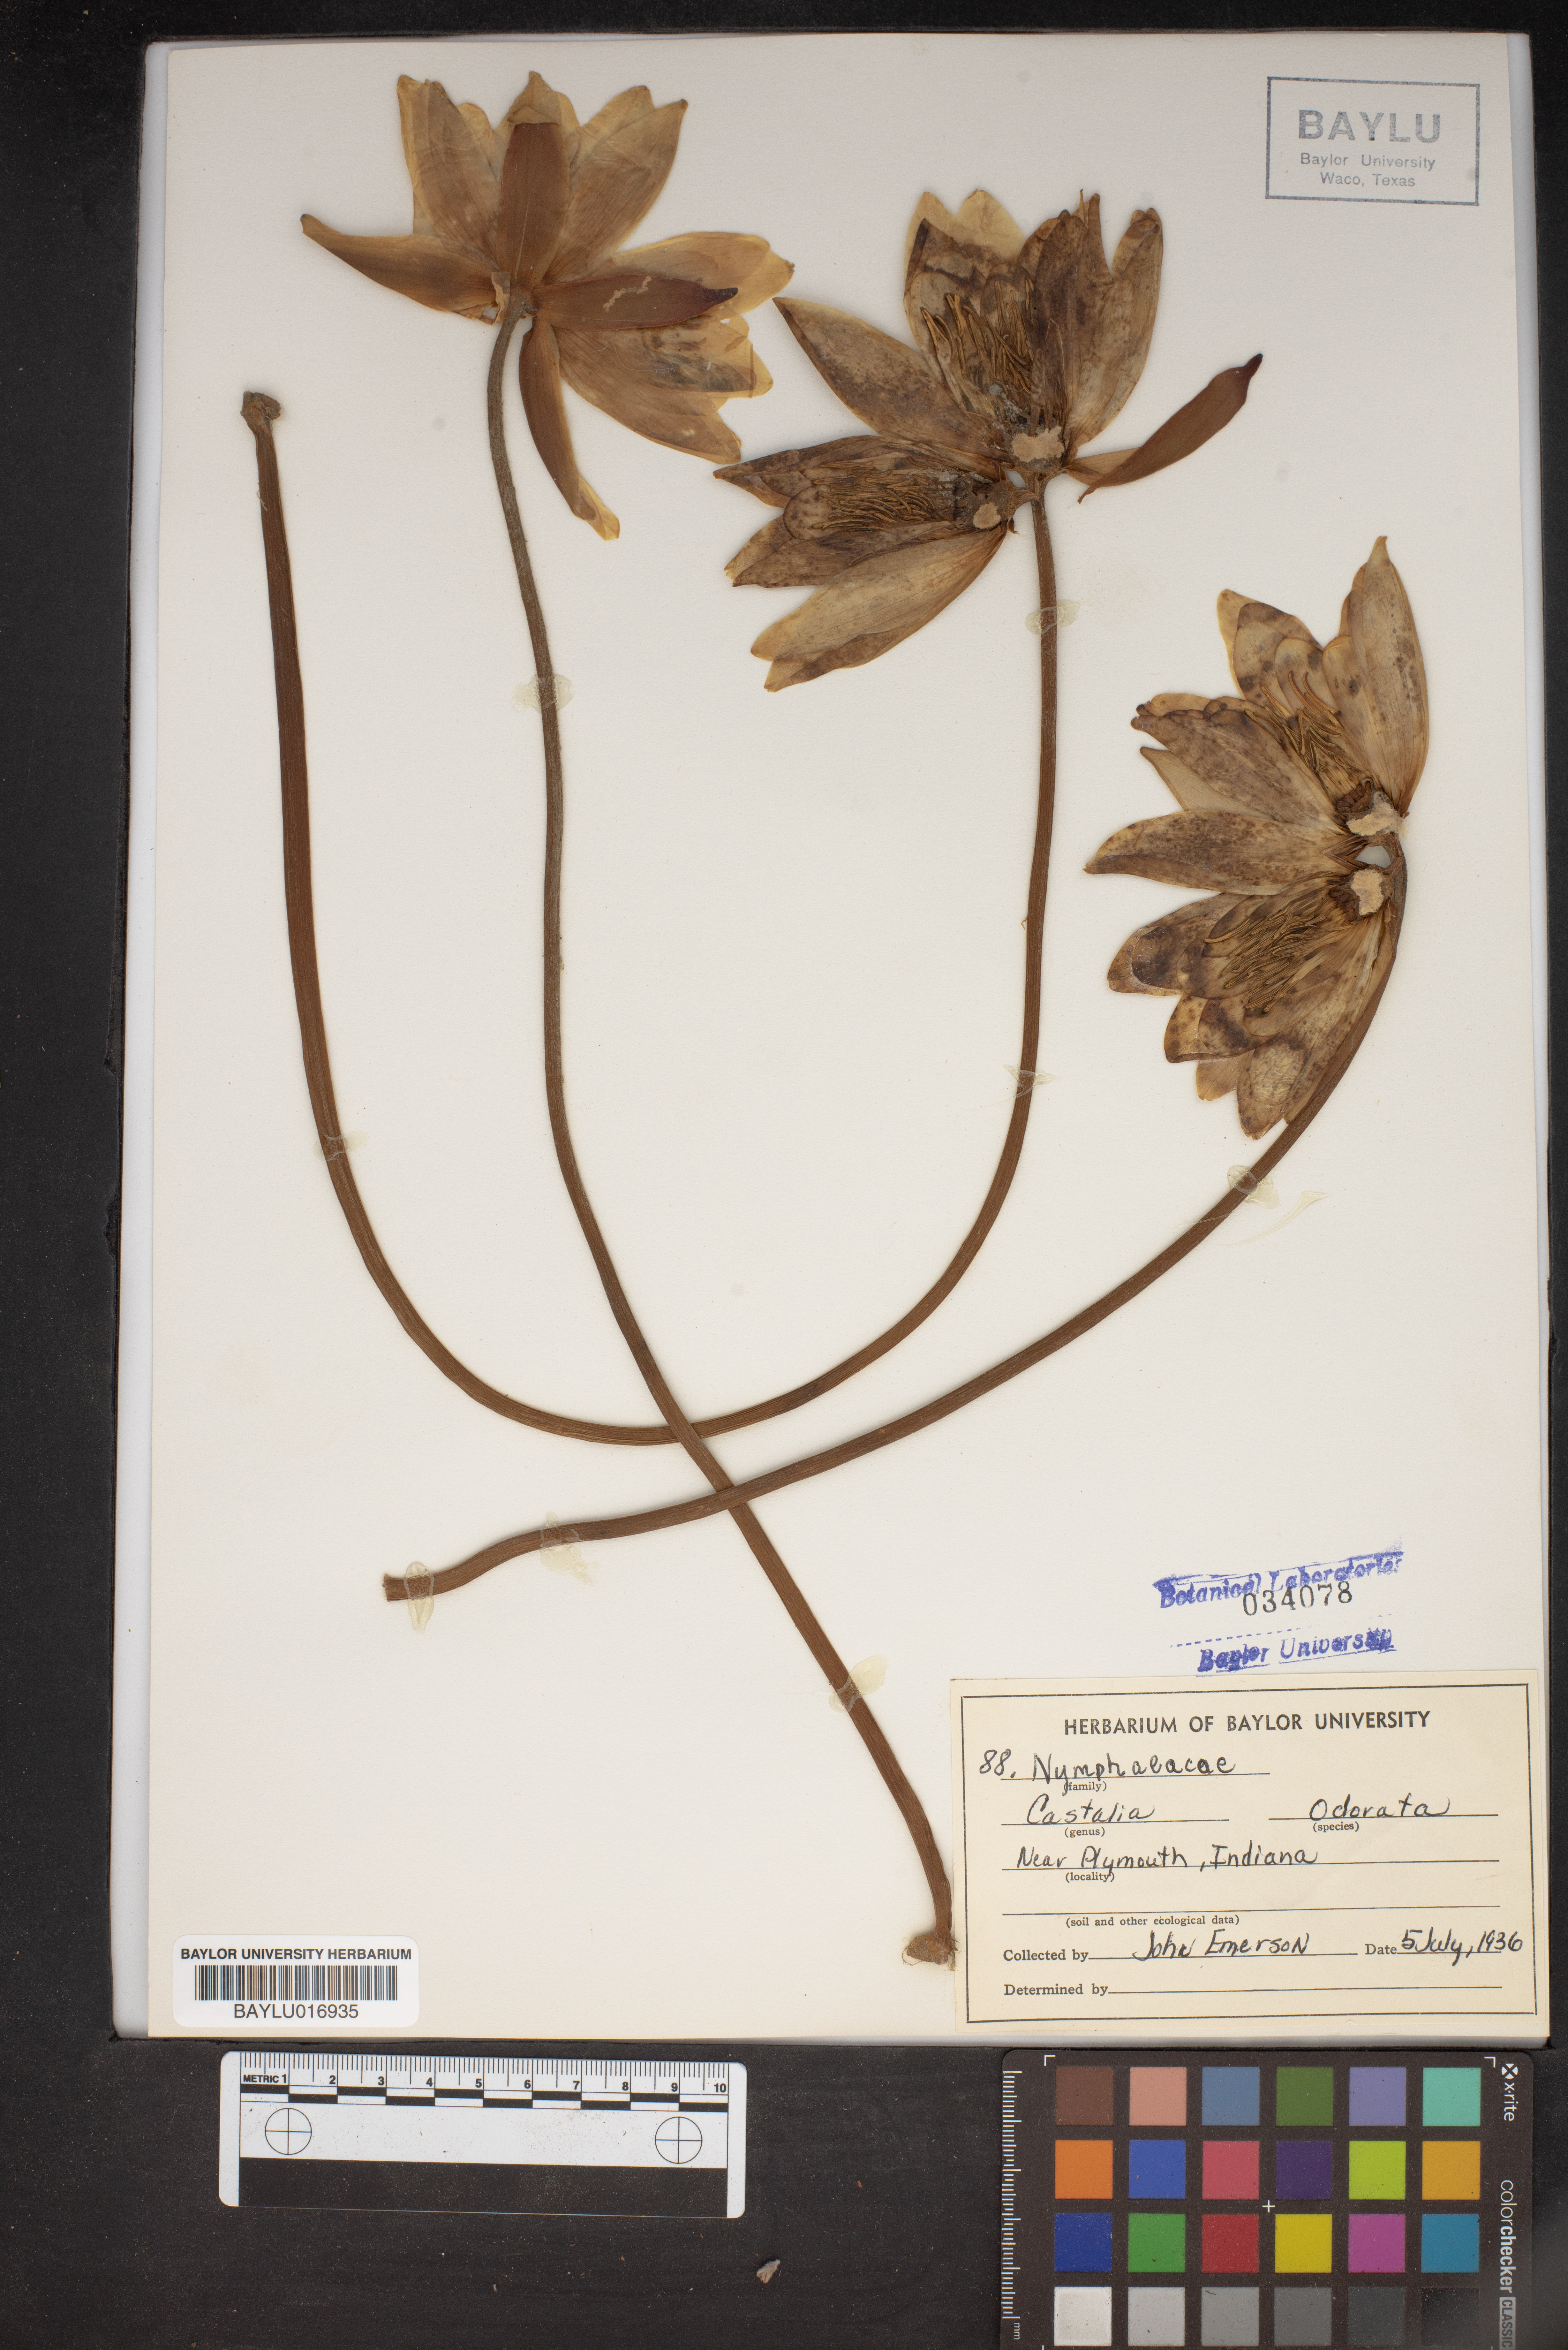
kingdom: Plantae
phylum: Tracheophyta
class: Magnoliopsida
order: Nymphaeales
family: Nymphaeaceae
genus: Nymphaea
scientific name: Nymphaea odorata
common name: Fragrant water-lily
